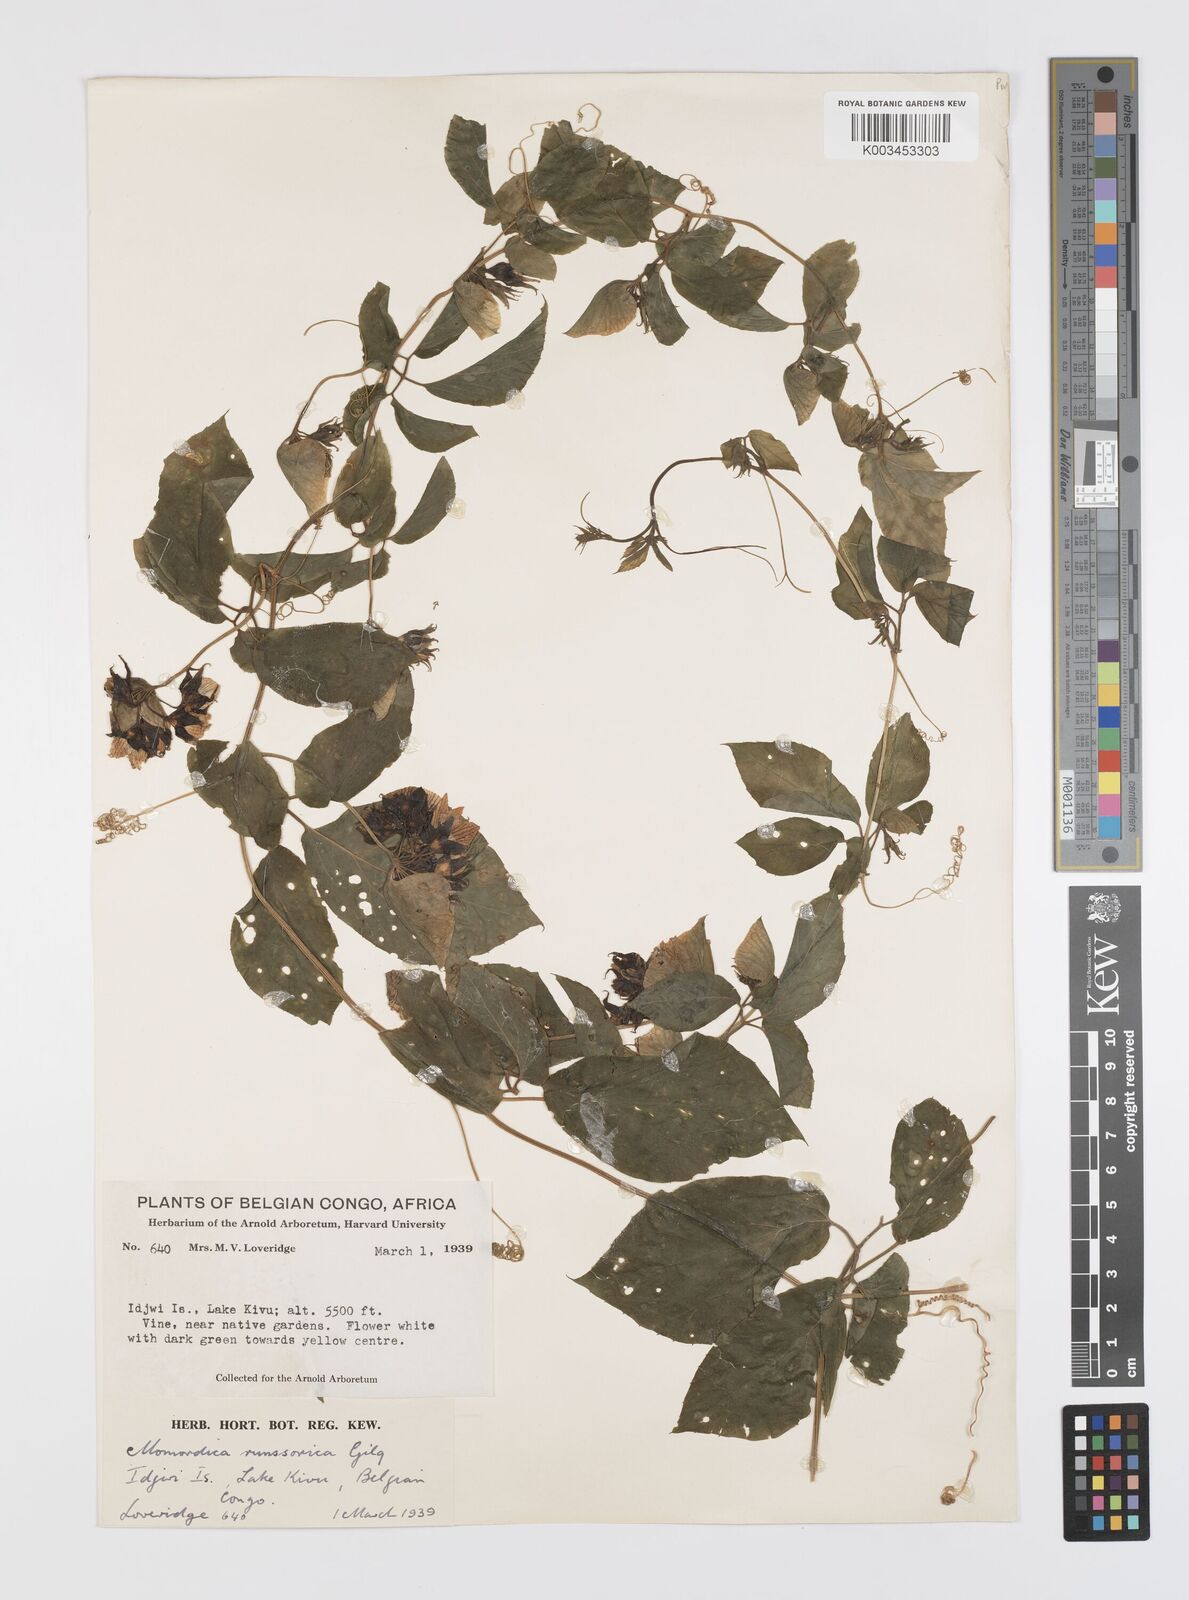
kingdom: Plantae
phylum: Tracheophyta
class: Magnoliopsida
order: Cucurbitales
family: Cucurbitaceae
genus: Momordica
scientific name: Momordica pterocarpa
